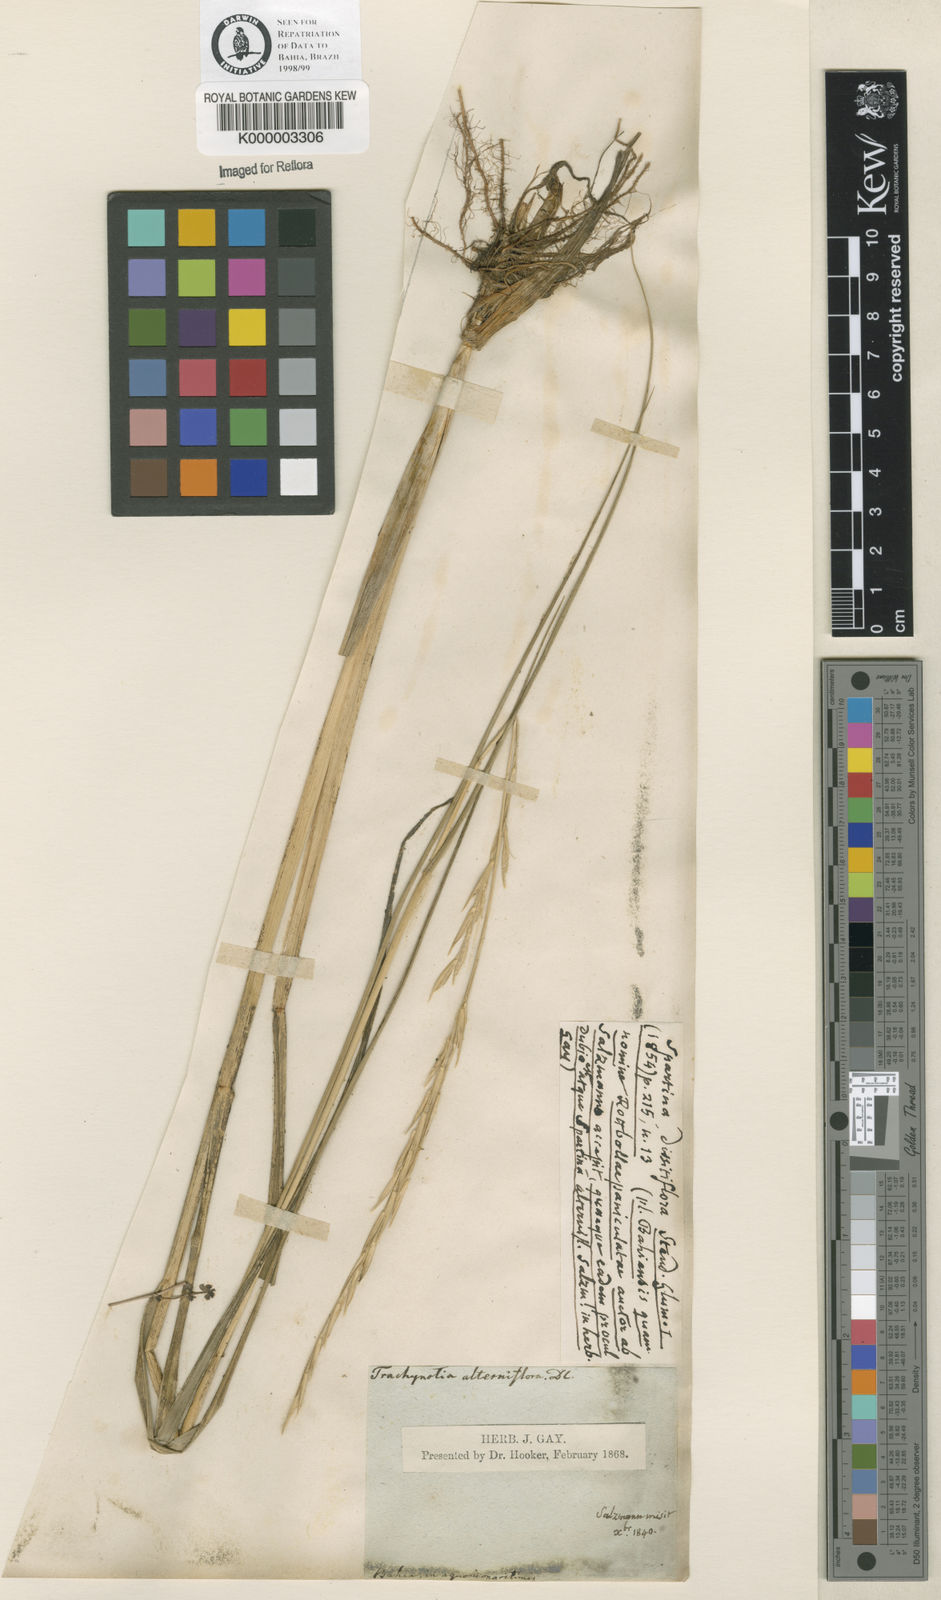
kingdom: Animalia
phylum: Mollusca
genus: Spartina
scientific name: Spartina
